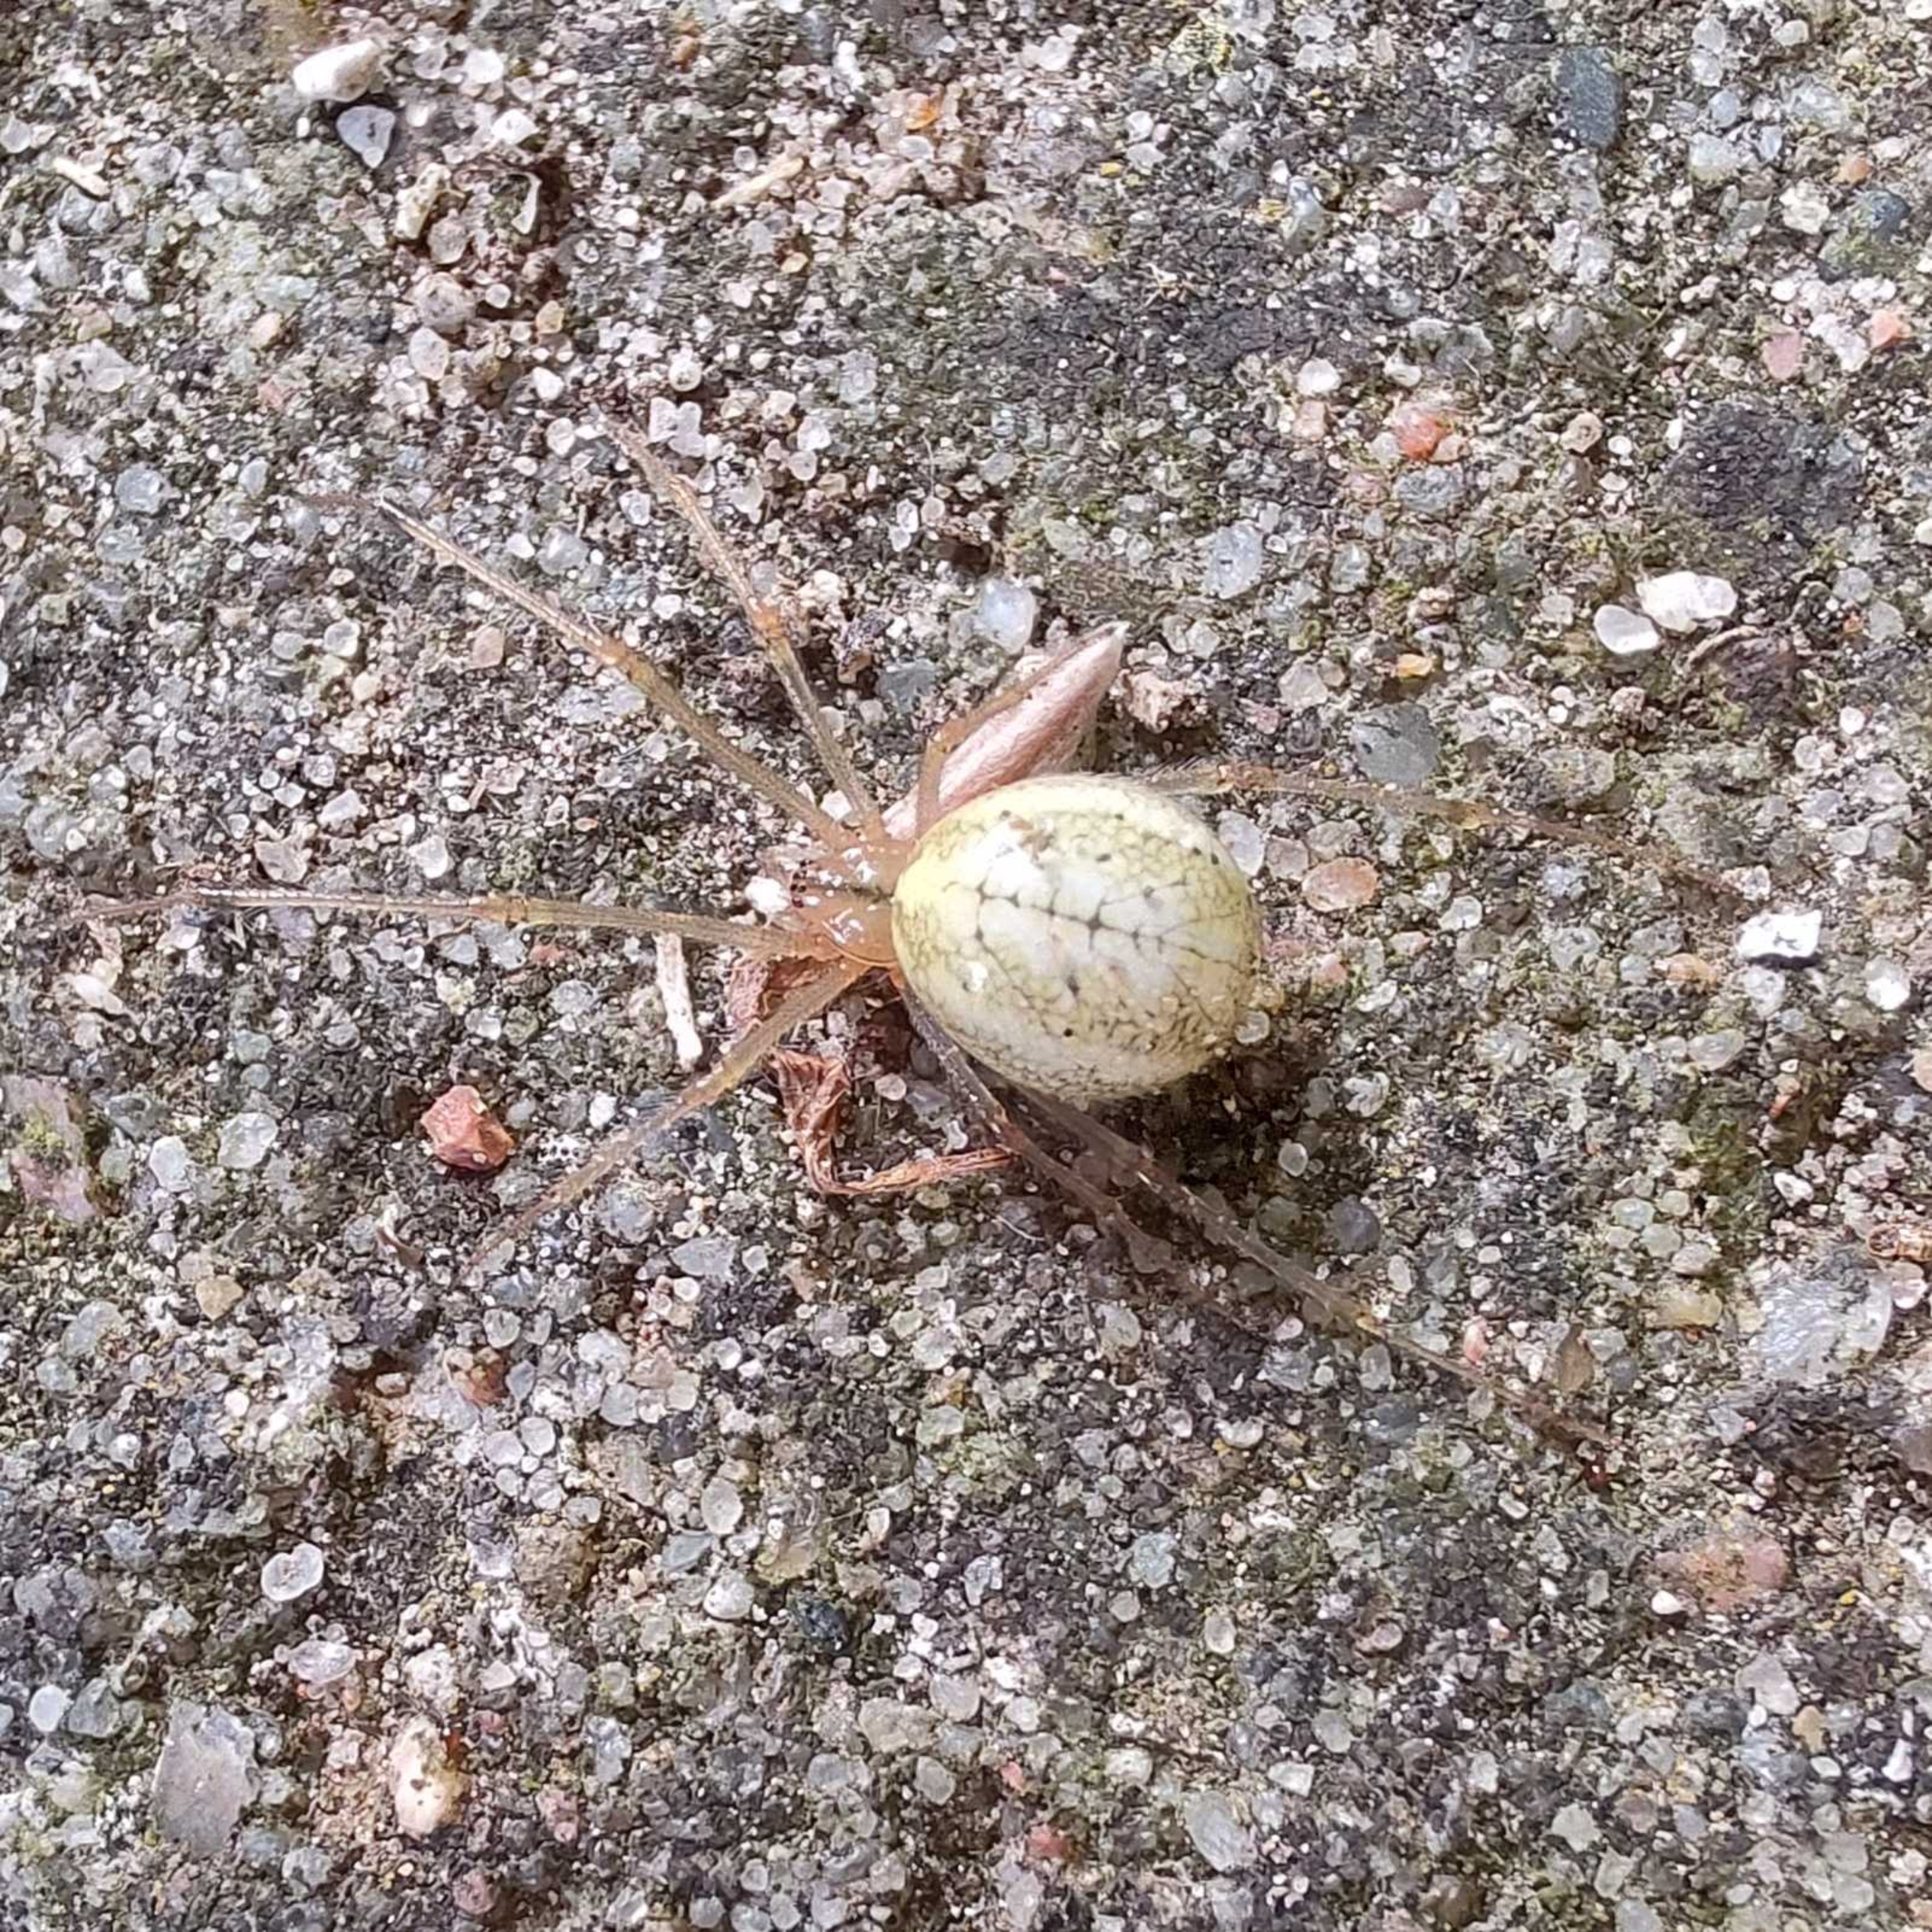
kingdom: Animalia
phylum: Arthropoda
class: Arachnida
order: Araneae
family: Theridiidae
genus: Enoplognatha
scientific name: Enoplognatha
